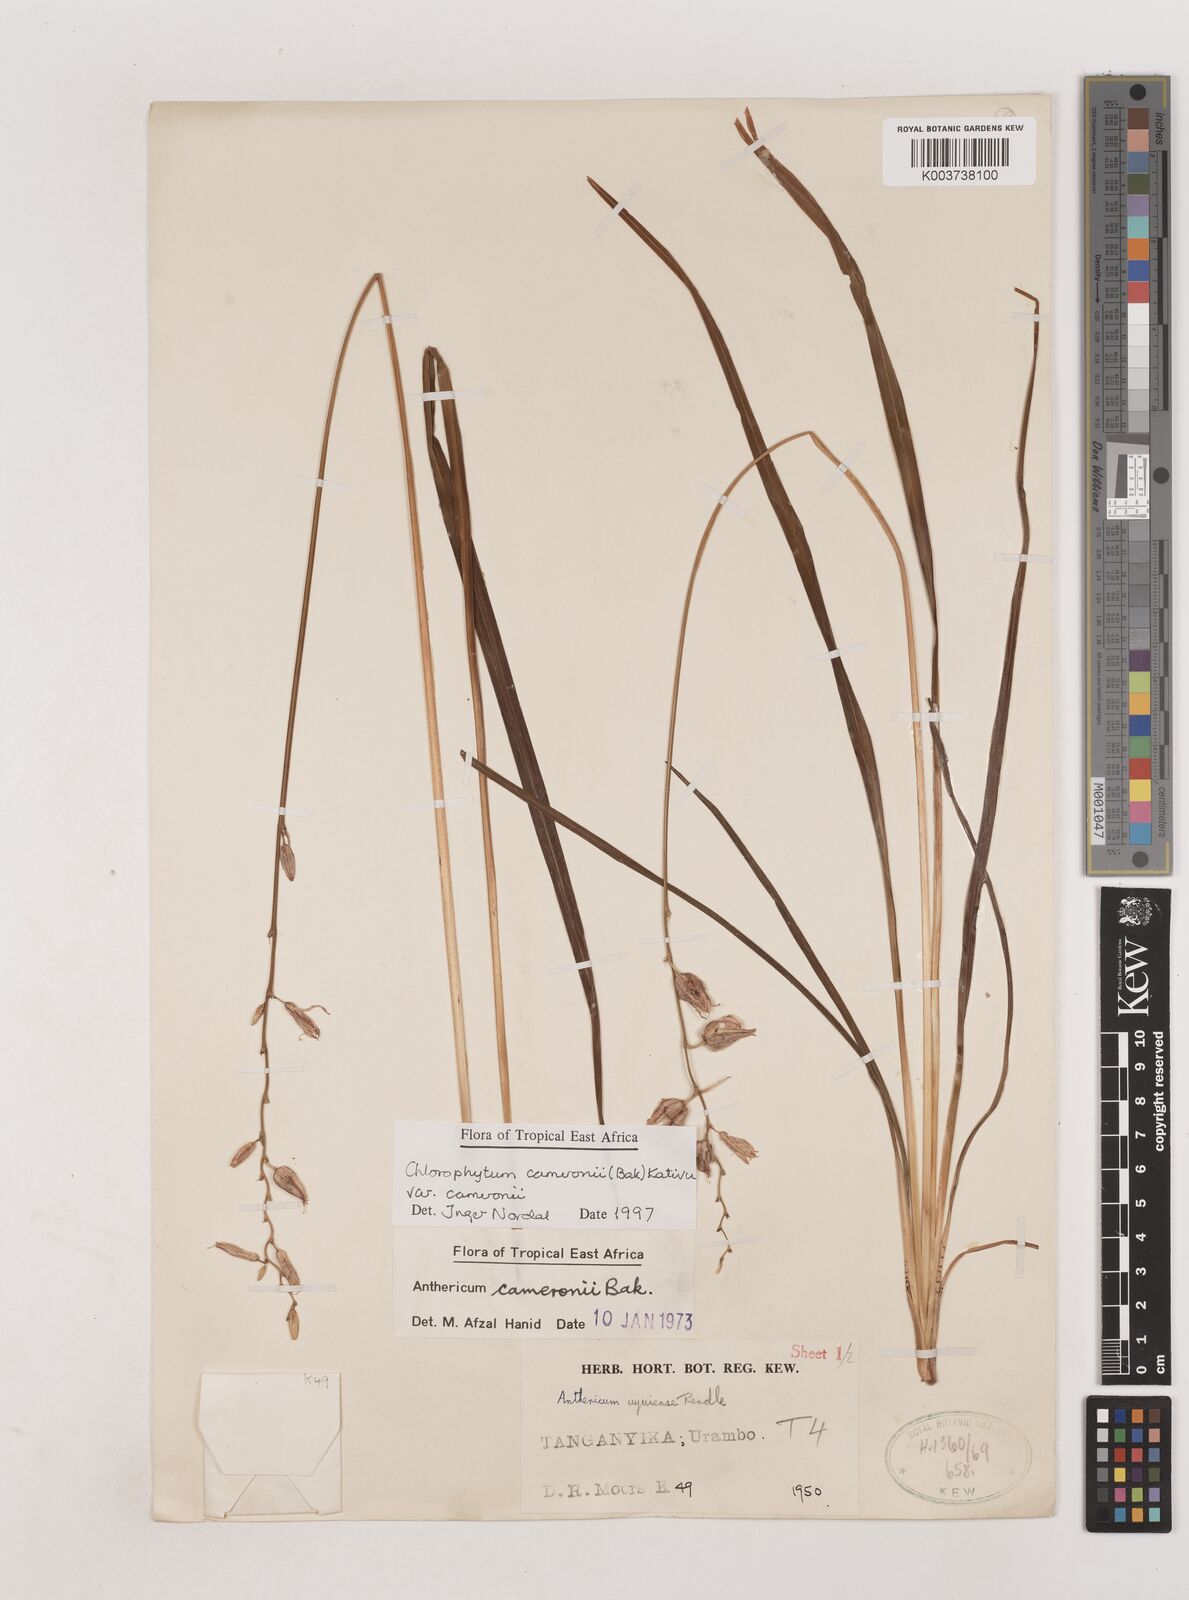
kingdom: Plantae
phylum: Tracheophyta
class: Liliopsida
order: Asparagales
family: Asparagaceae
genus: Chlorophytum
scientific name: Chlorophytum cameronii
